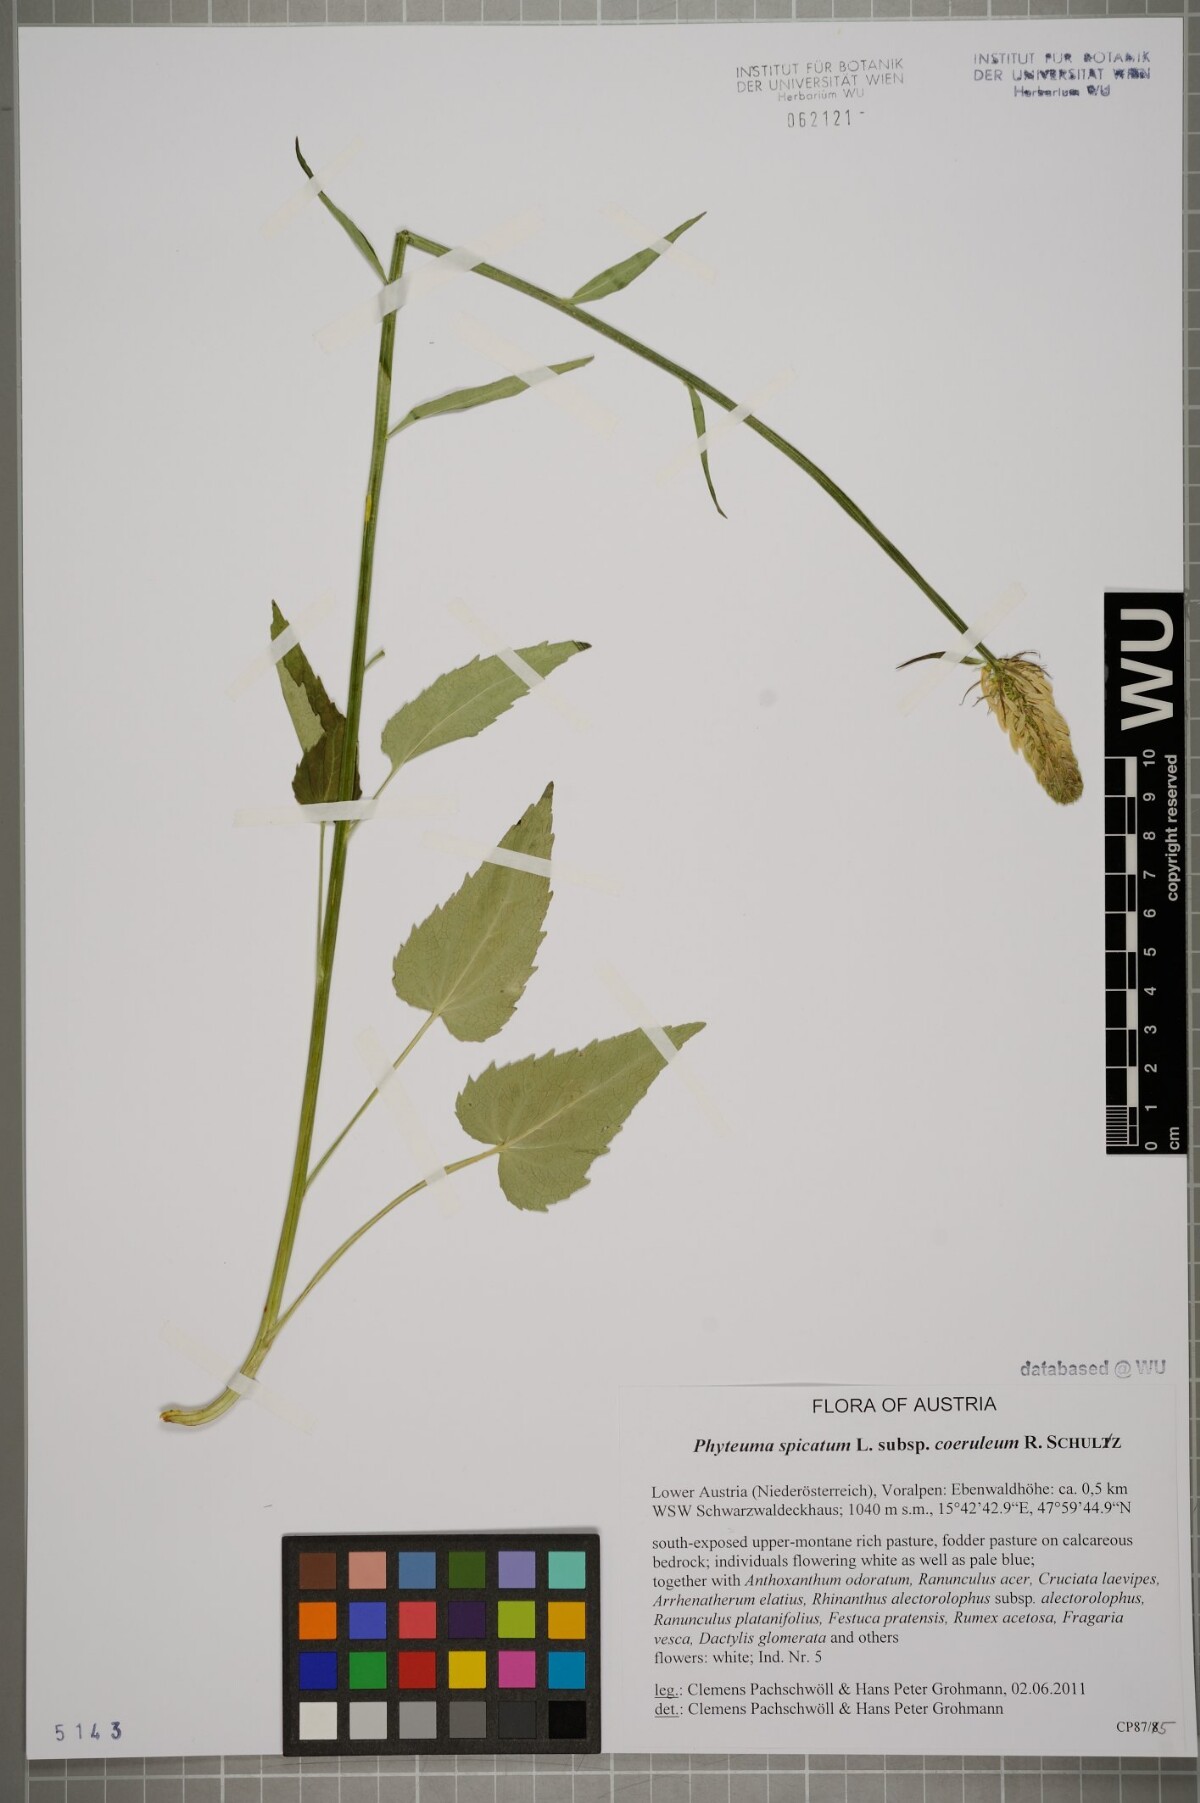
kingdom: Plantae
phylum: Tracheophyta
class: Magnoliopsida
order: Asterales
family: Campanulaceae
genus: Phyteuma
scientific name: Phyteuma spicatum
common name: Spiked rampion
